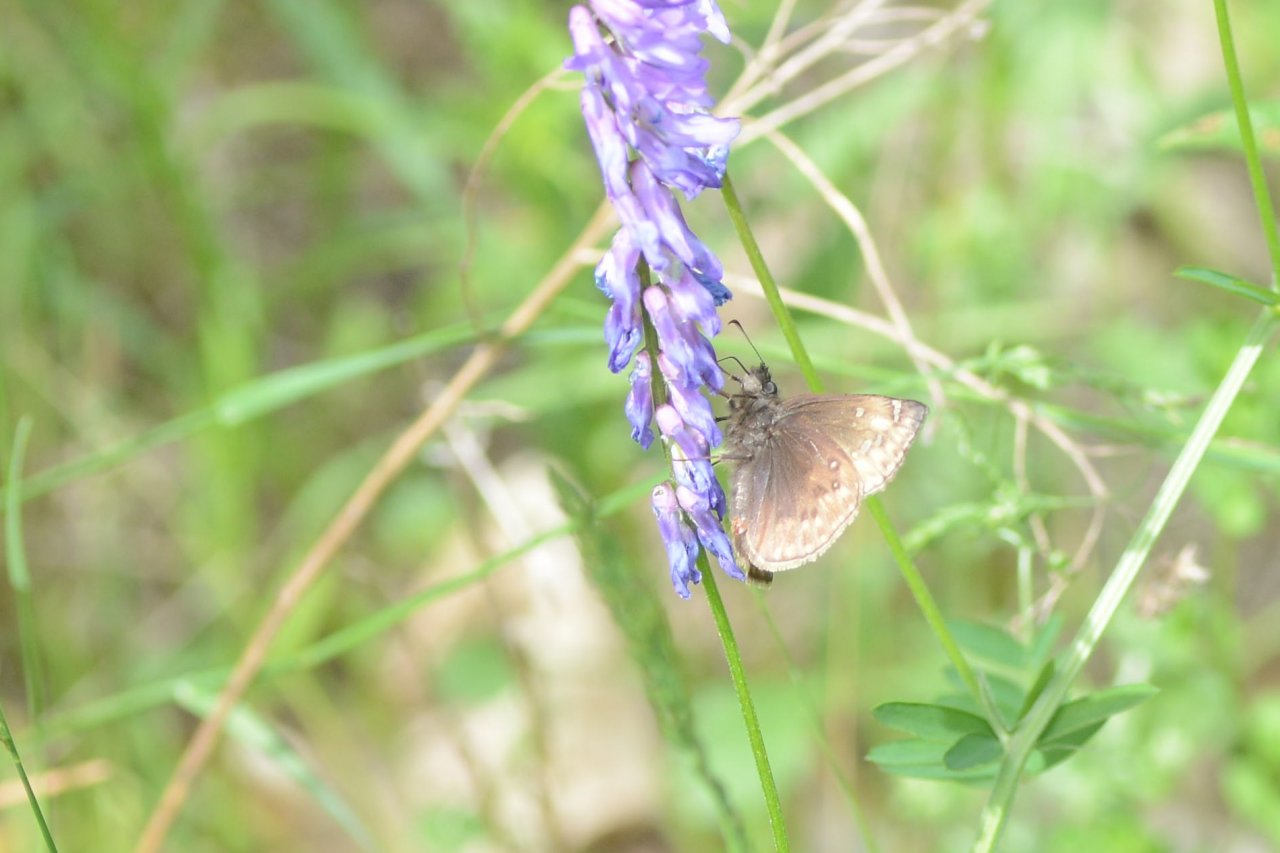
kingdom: Animalia
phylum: Arthropoda
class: Insecta
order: Lepidoptera
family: Hesperiidae
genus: Gesta
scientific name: Gesta
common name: Juvenal's Duskywing
